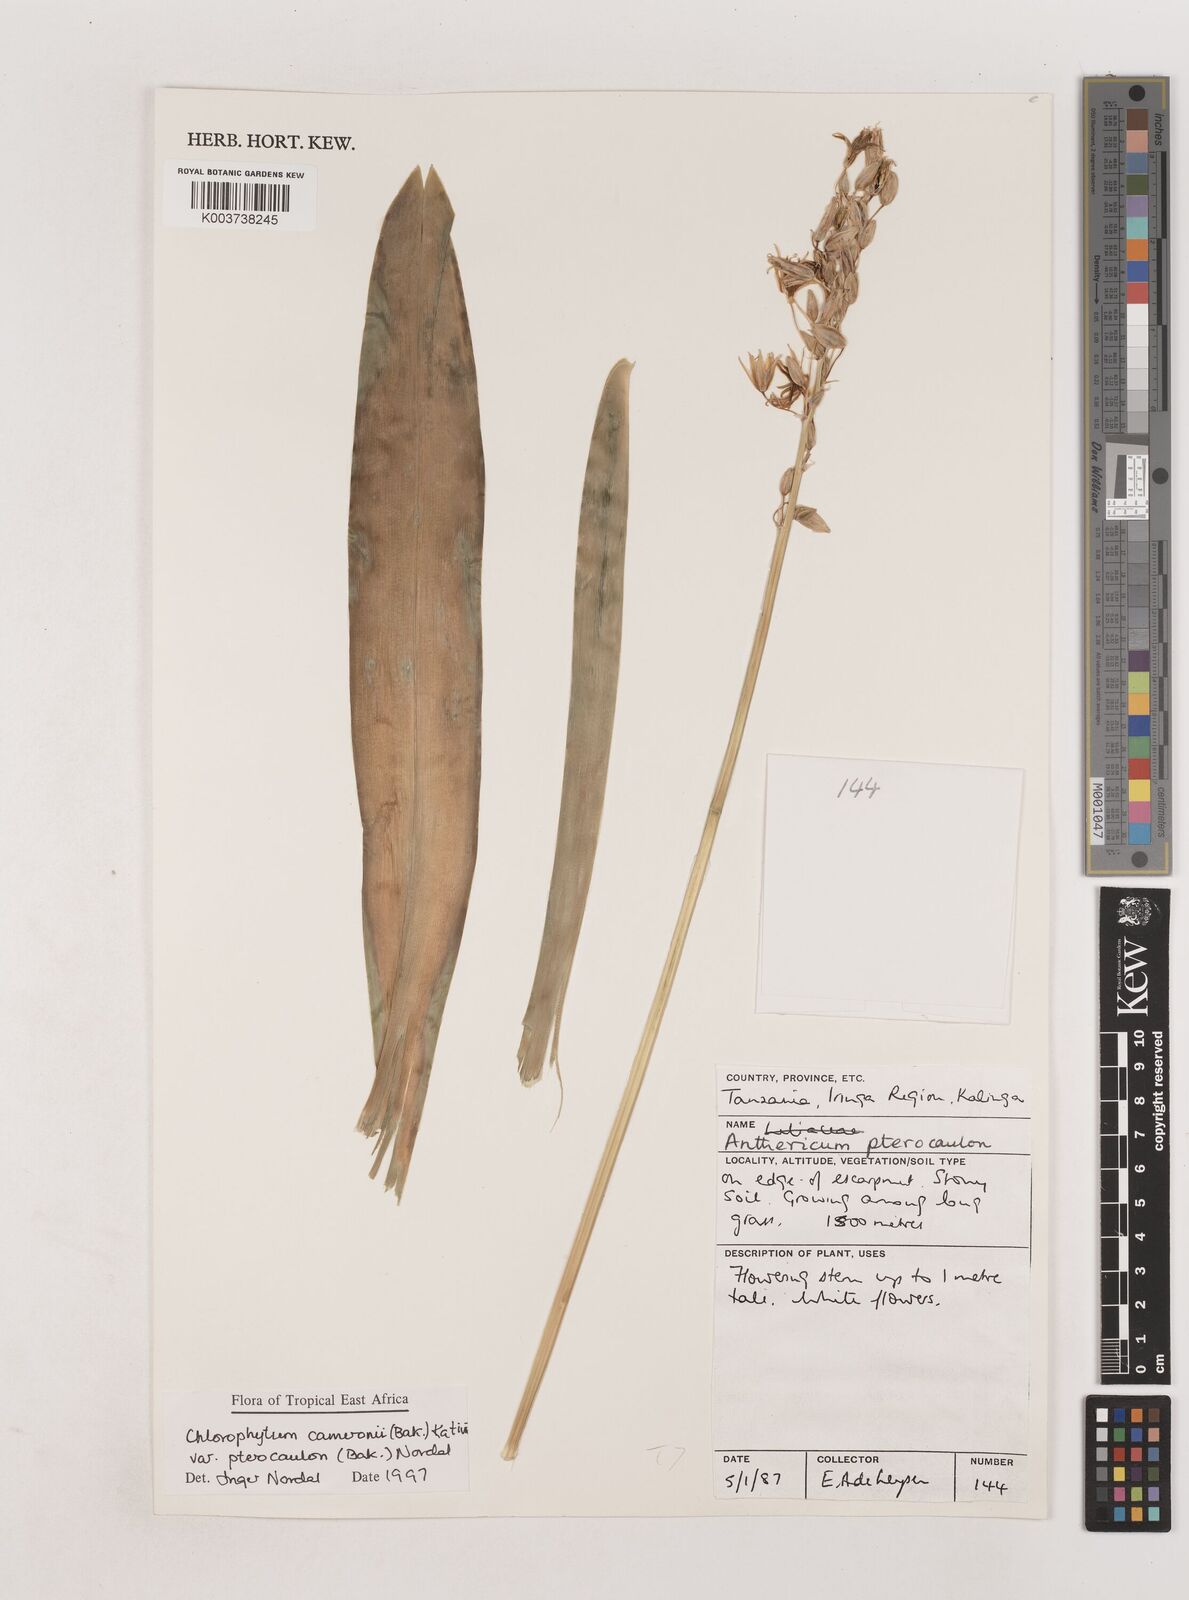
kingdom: Plantae
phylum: Tracheophyta
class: Liliopsida
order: Asparagales
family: Asparagaceae
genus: Chlorophytum
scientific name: Chlorophytum cameronii
